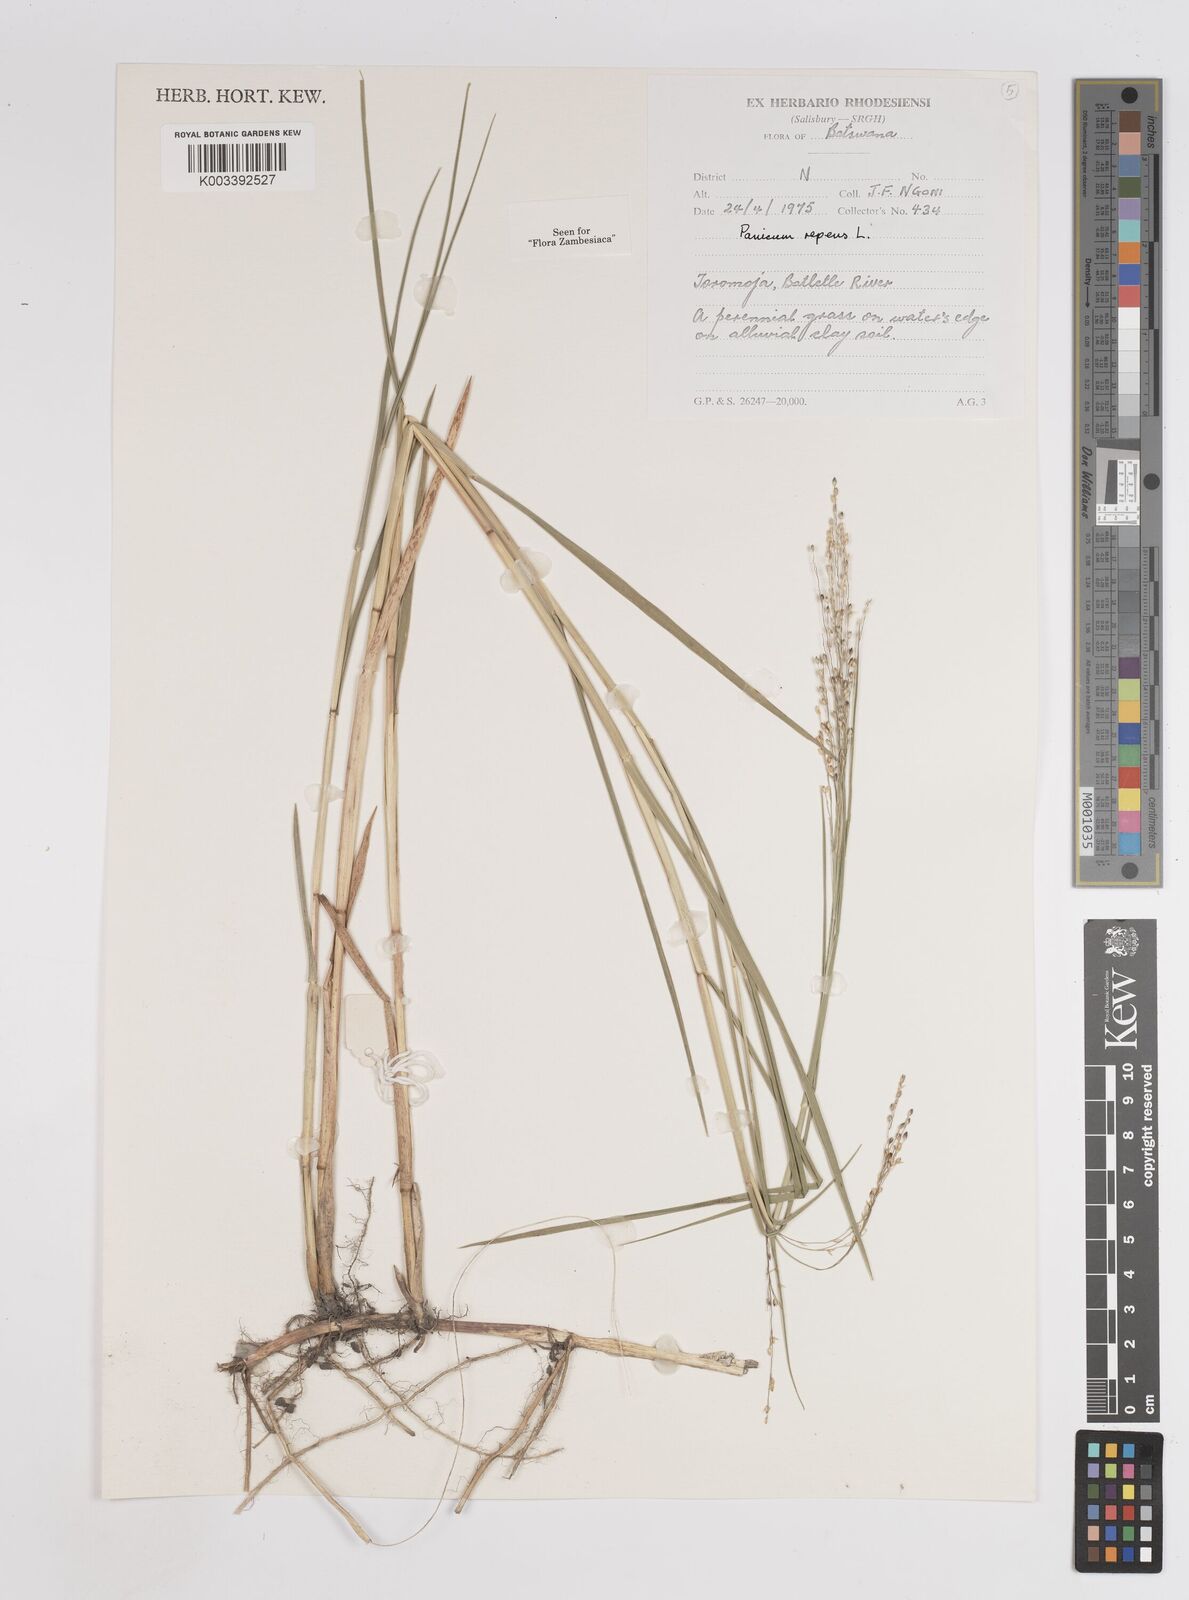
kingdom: Plantae
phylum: Tracheophyta
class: Liliopsida
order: Poales
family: Poaceae
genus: Panicum
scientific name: Panicum repens
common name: Torpedo grass
